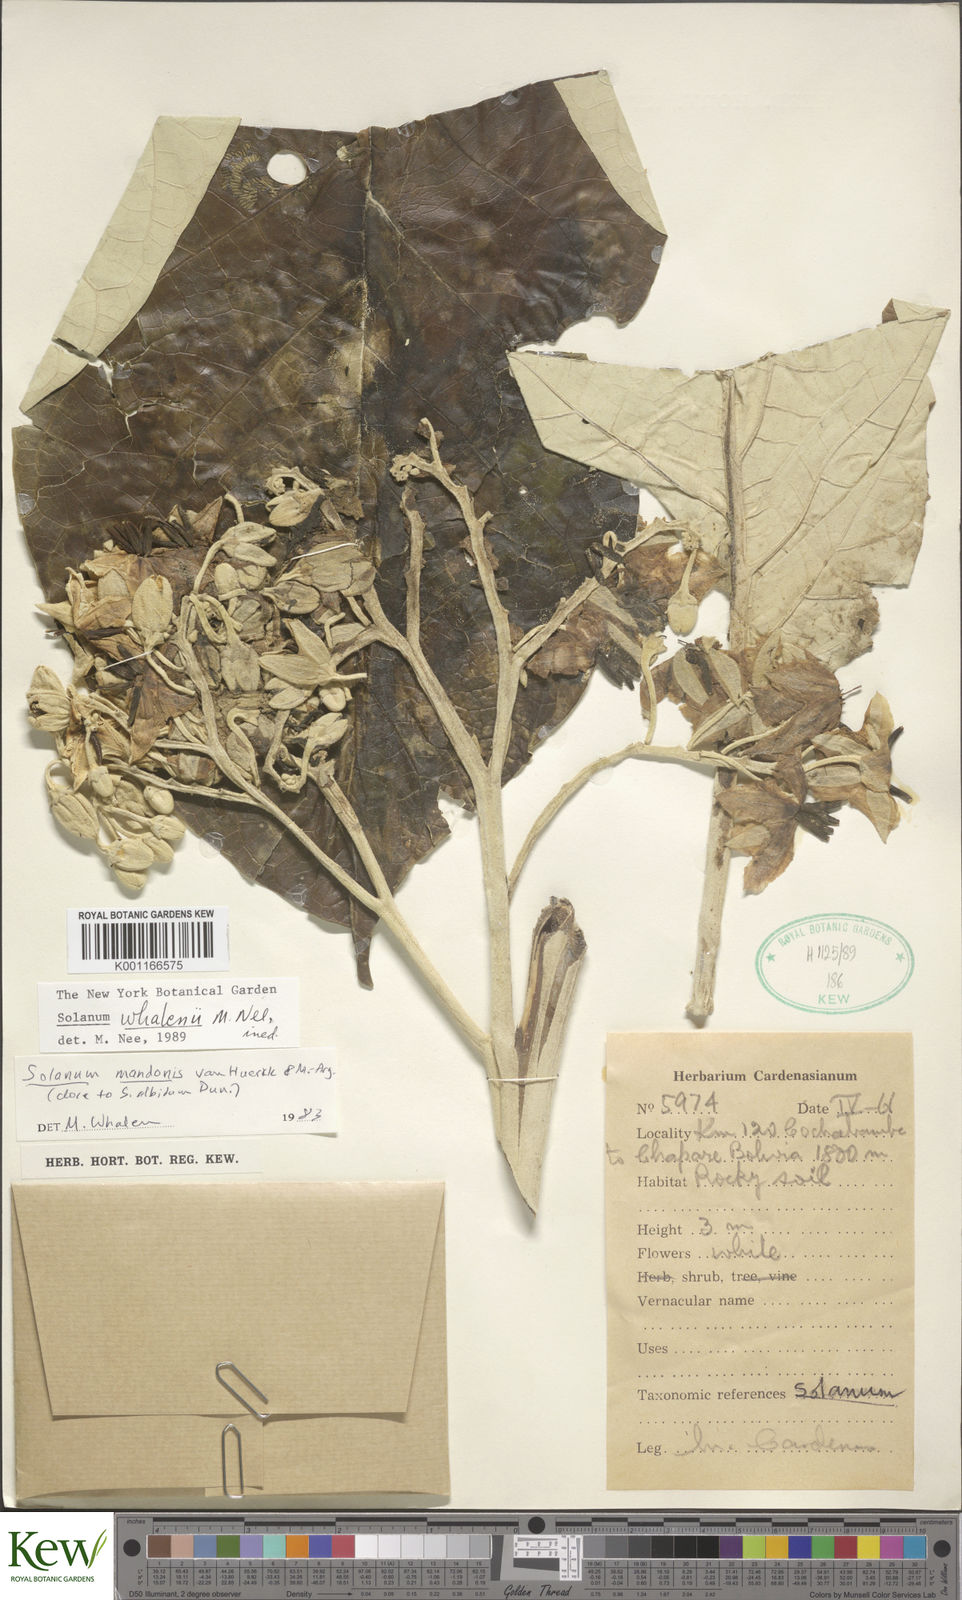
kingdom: Plantae
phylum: Tracheophyta
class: Magnoliopsida
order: Solanales
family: Solanaceae
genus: Solanum
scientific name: Solanum whalenii
